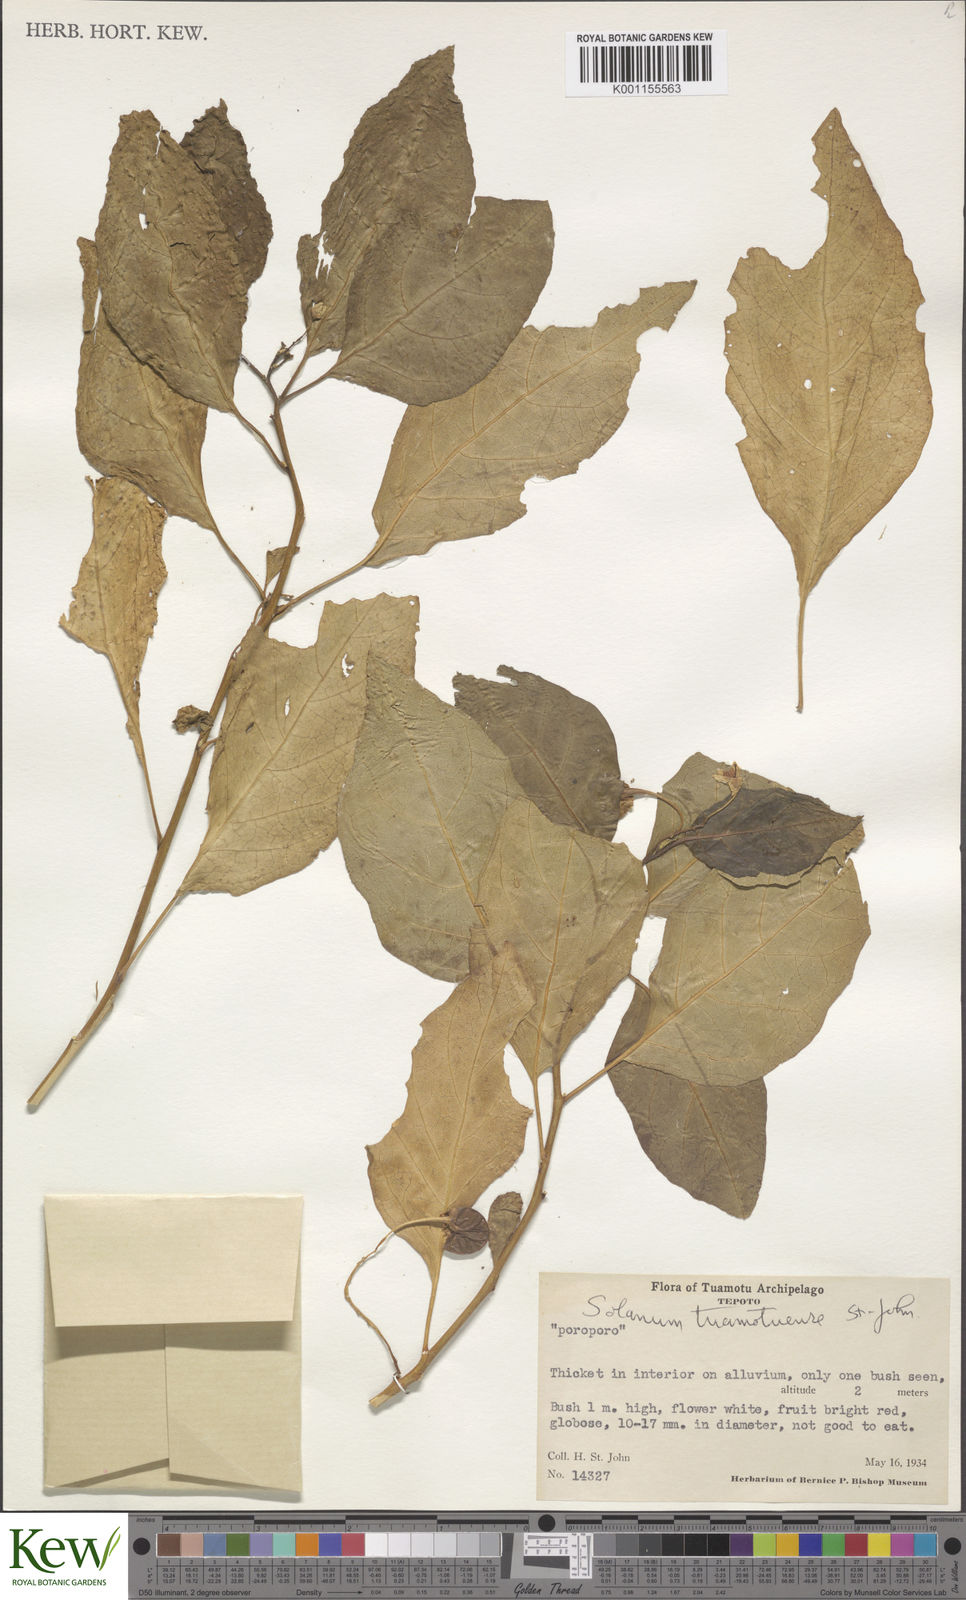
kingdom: Plantae
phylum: Tracheophyta
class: Magnoliopsida
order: Solanales
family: Solanaceae
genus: Solanum
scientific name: Solanum viride
